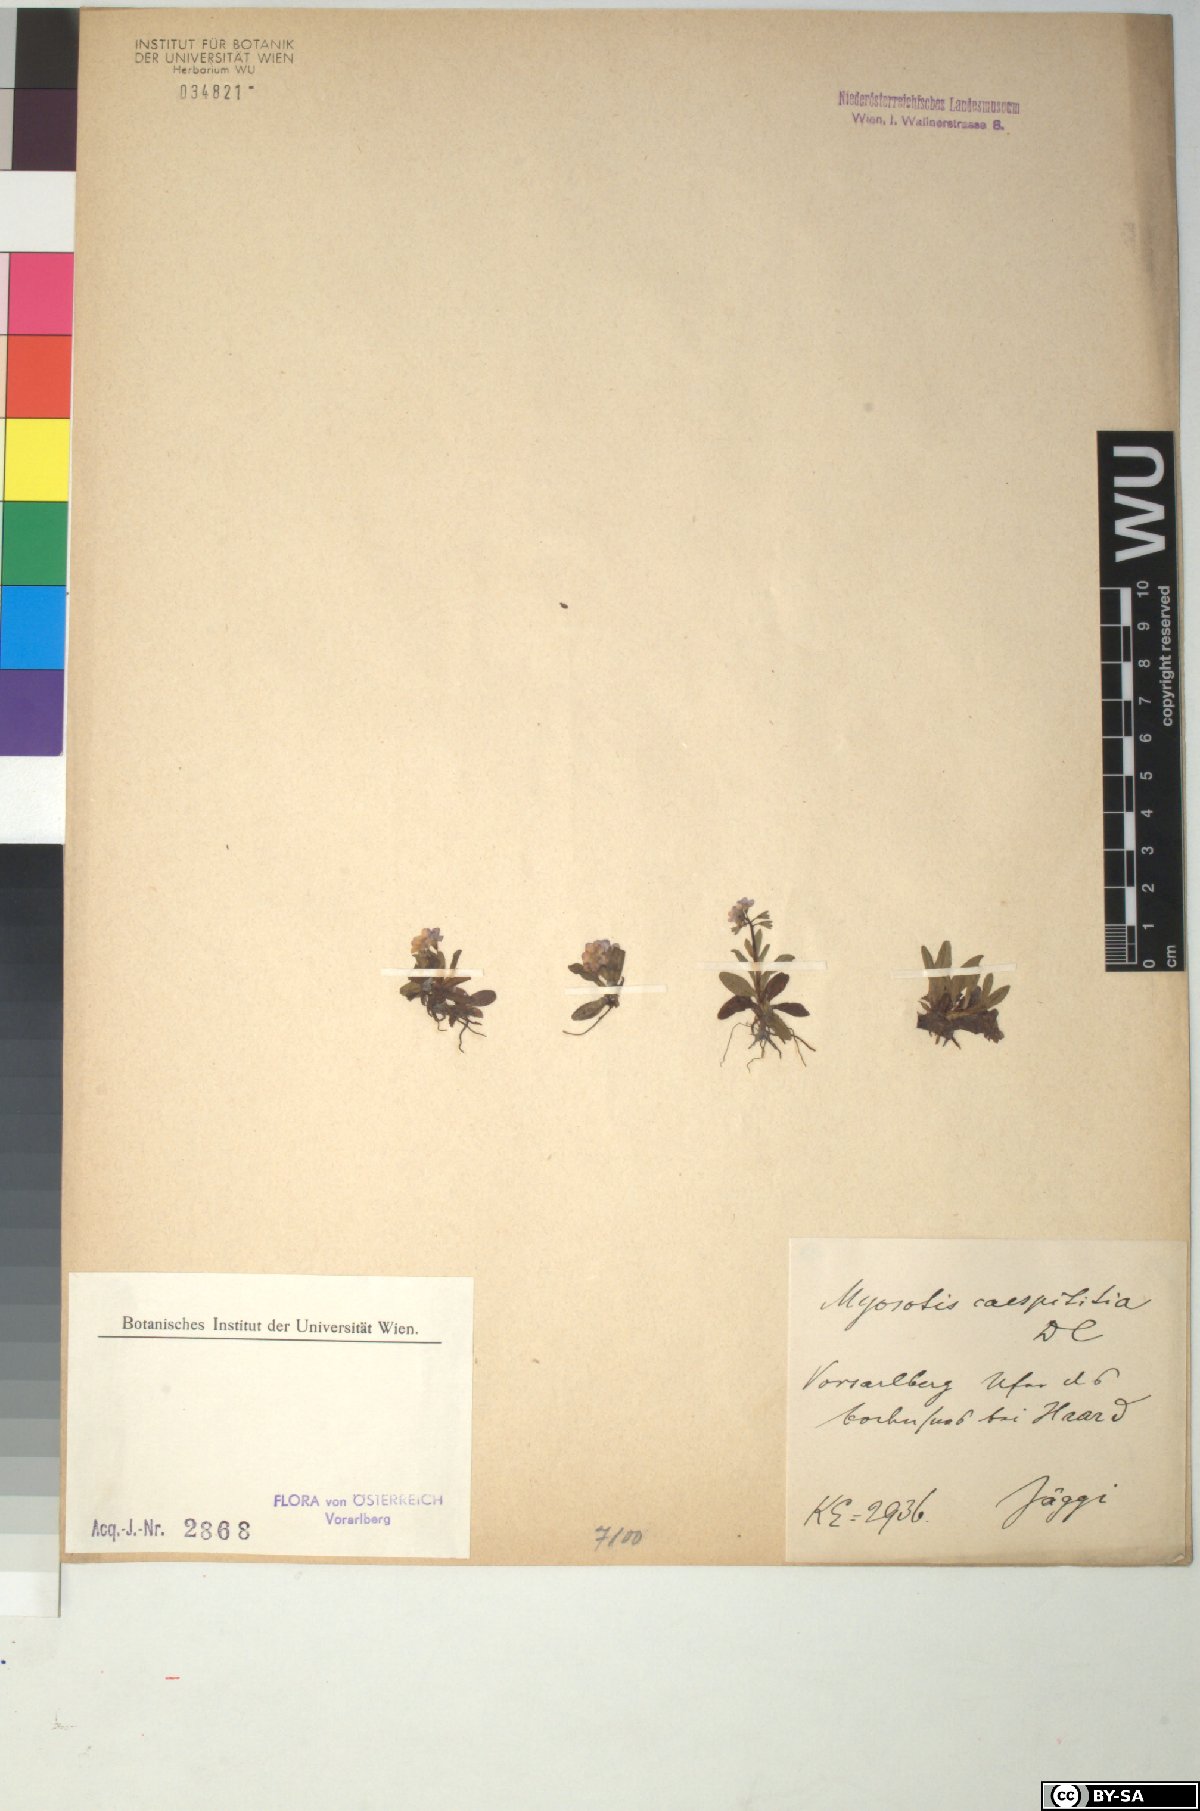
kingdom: Plantae
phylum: Tracheophyta
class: Magnoliopsida
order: Boraginales
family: Boraginaceae
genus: Myosotis
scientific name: Myosotis rehsteineri
